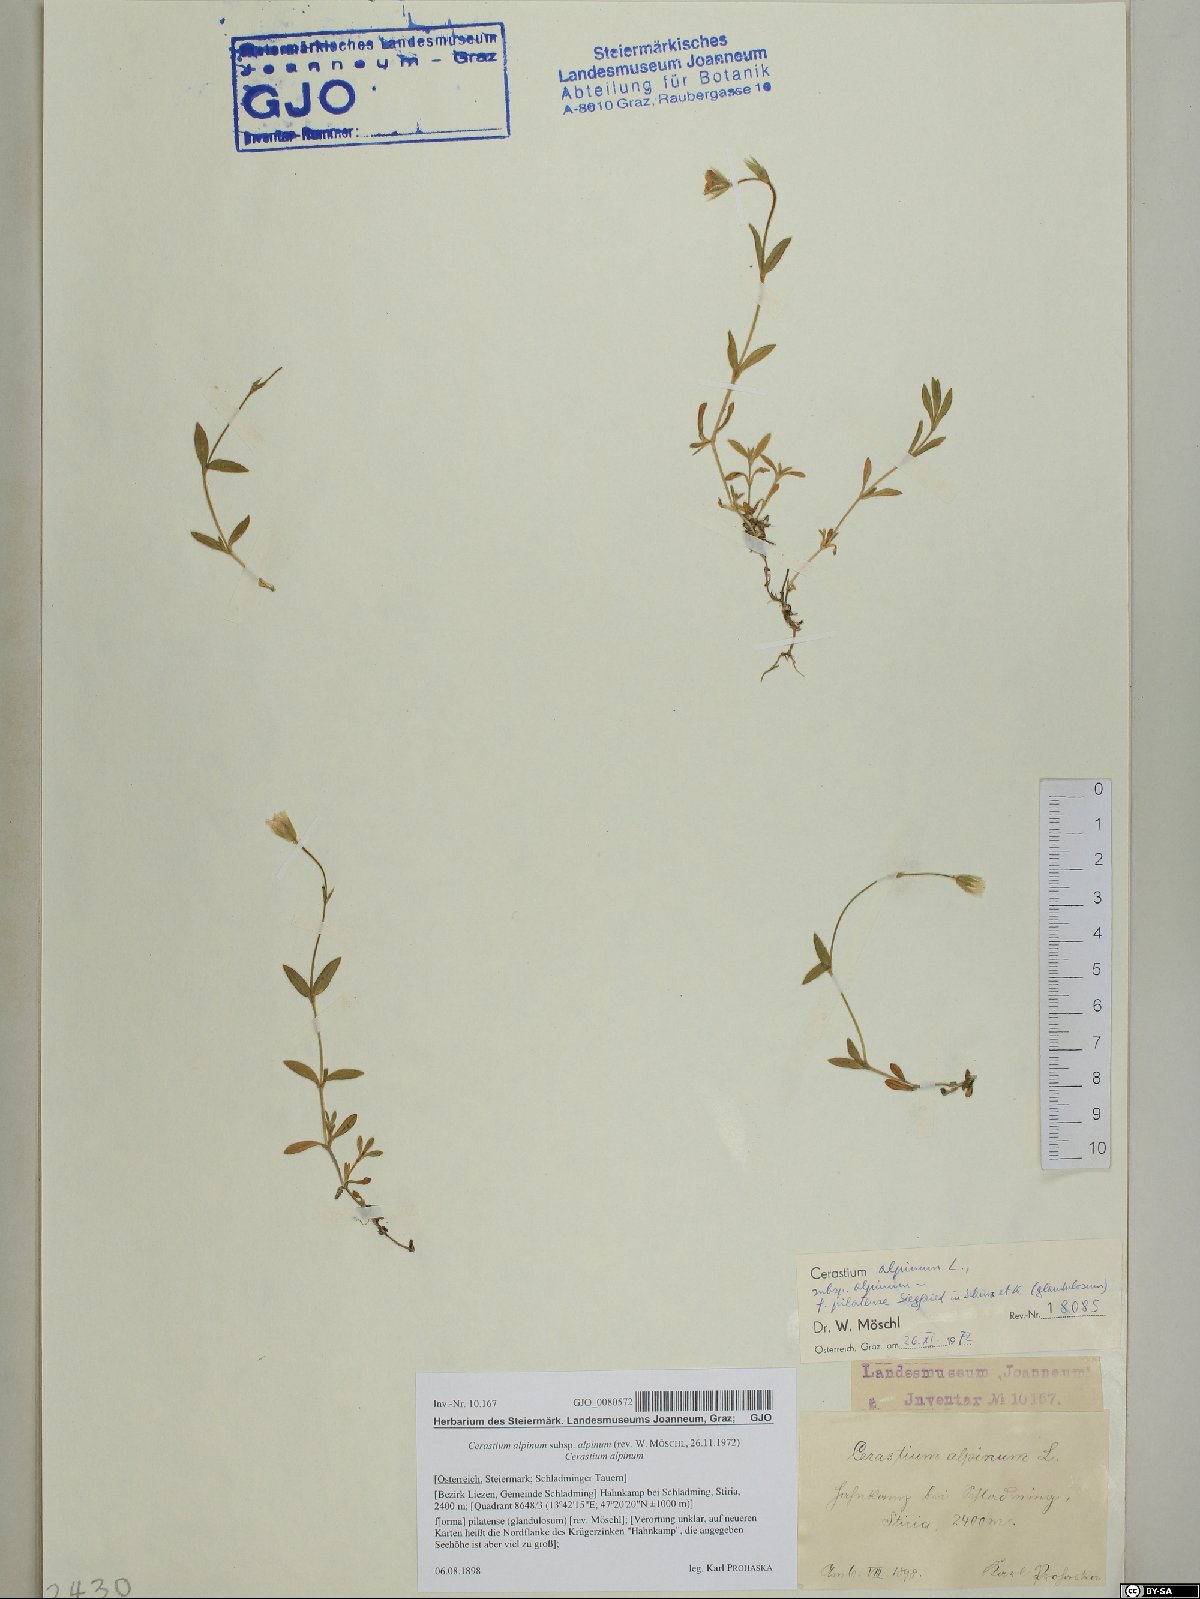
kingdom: Plantae
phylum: Tracheophyta
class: Magnoliopsida
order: Caryophyllales
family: Caryophyllaceae
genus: Cerastium
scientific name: Cerastium alpinum
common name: Alpine mouse-ear
